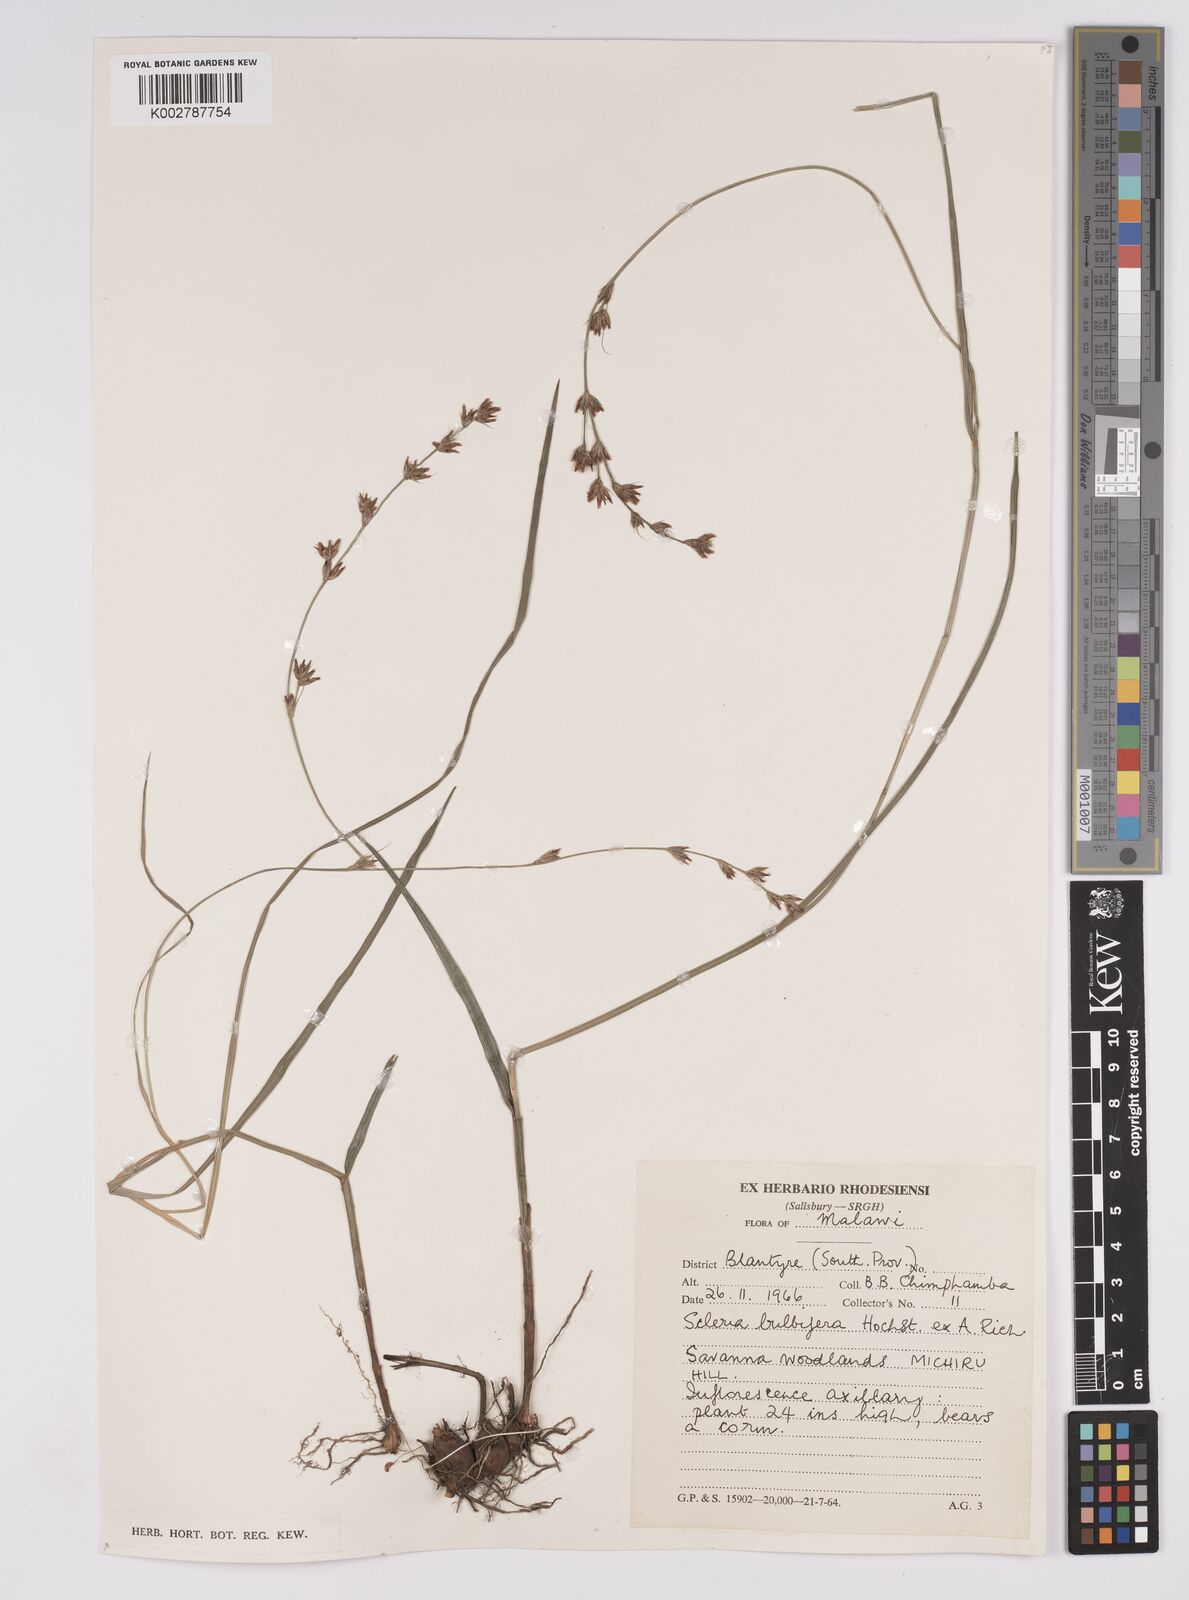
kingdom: Plantae
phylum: Tracheophyta
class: Liliopsida
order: Poales
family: Cyperaceae
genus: Scleria
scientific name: Scleria bulbifera
